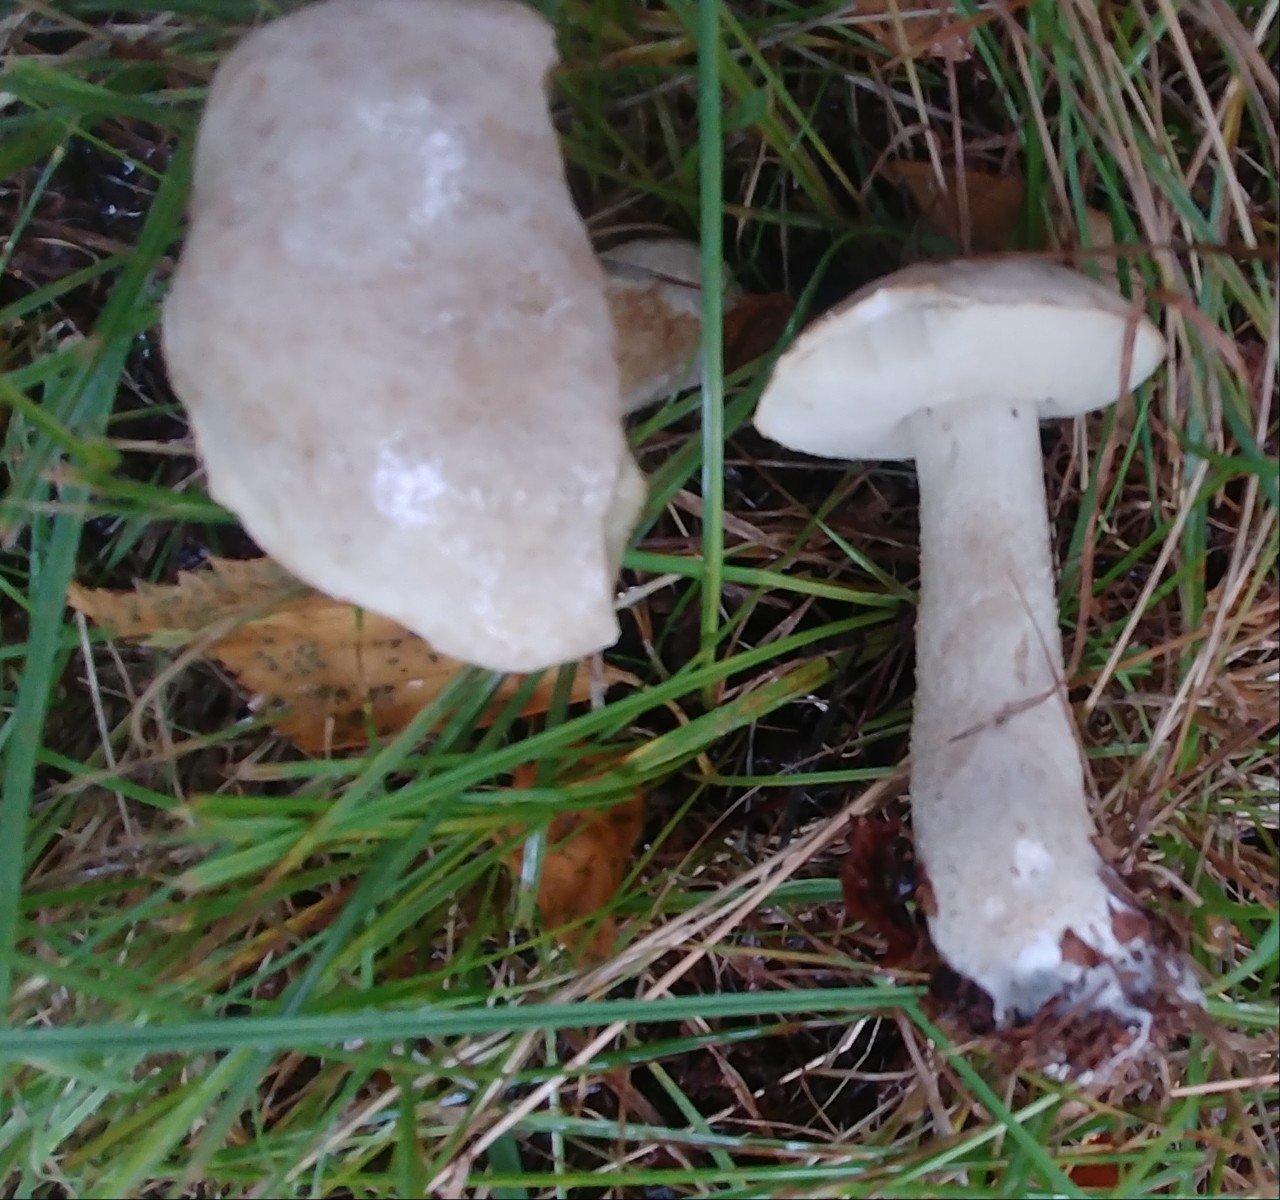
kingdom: Fungi
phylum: Basidiomycota
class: Agaricomycetes
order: Boletales
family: Boletaceae
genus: Leccinum
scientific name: Leccinum
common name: skælrørhat
